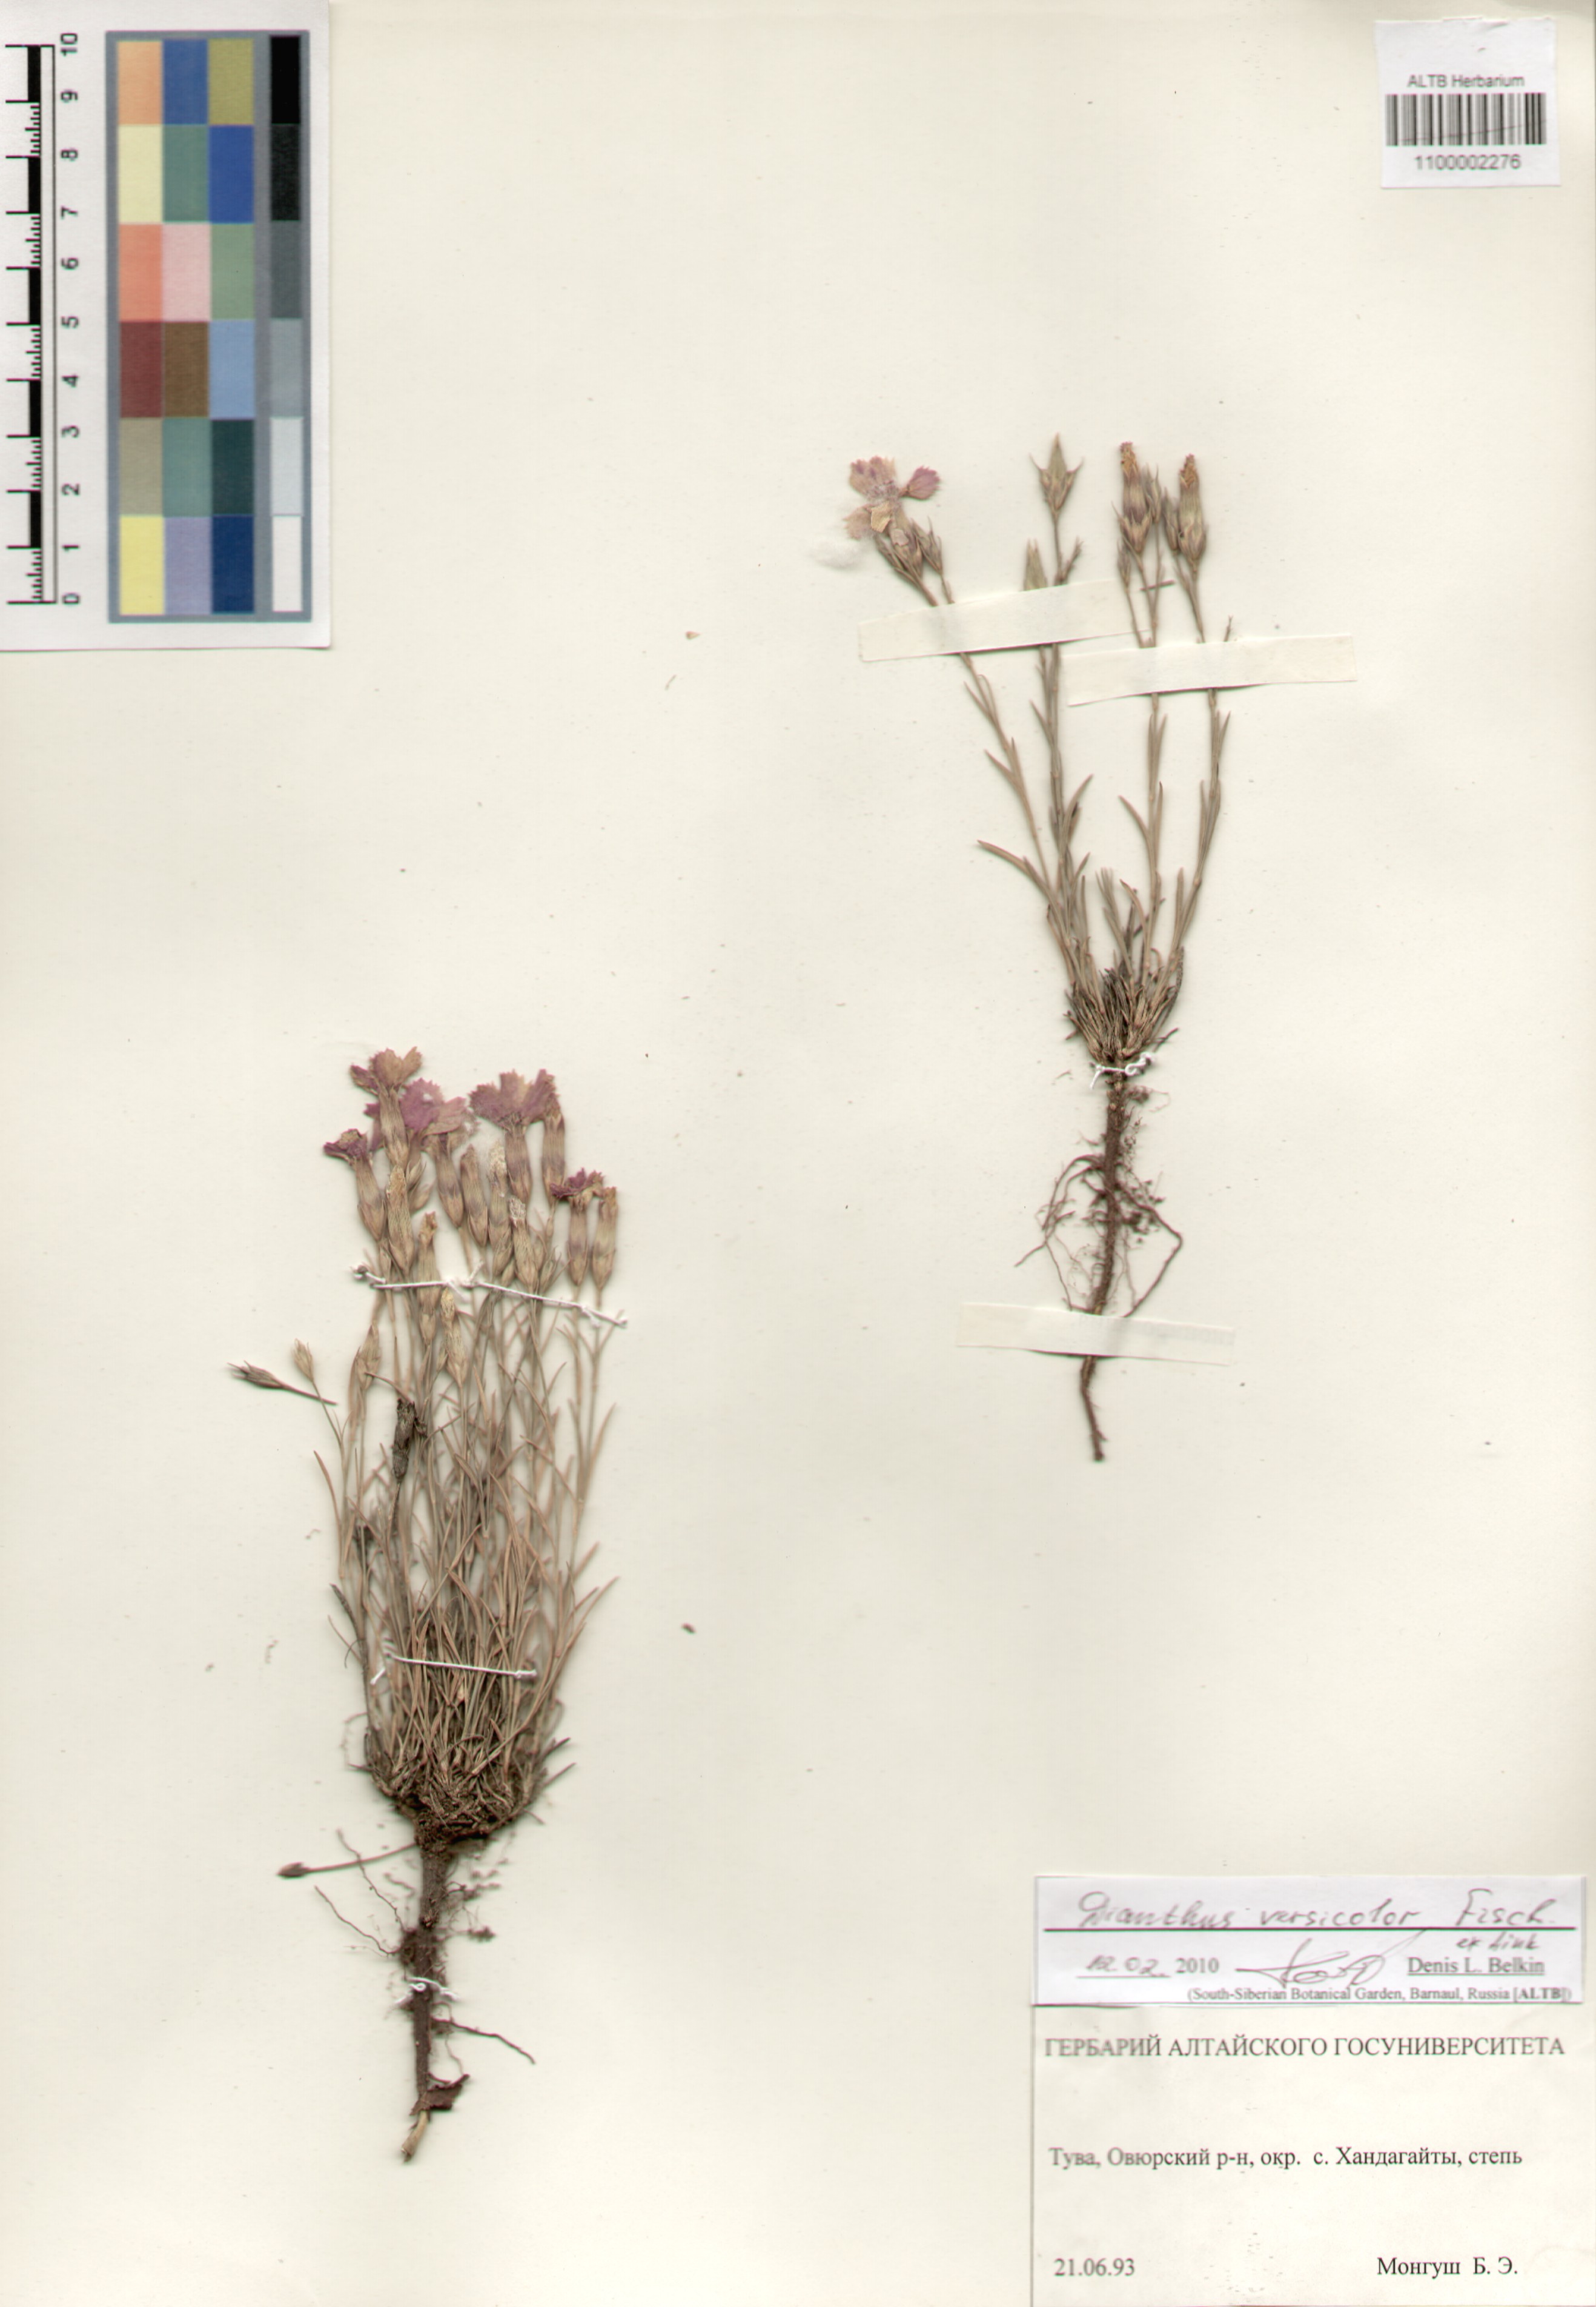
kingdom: Plantae
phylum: Tracheophyta
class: Magnoliopsida
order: Caryophyllales
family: Caryophyllaceae
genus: Dianthus
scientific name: Dianthus chinensis
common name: Rainbow pink
